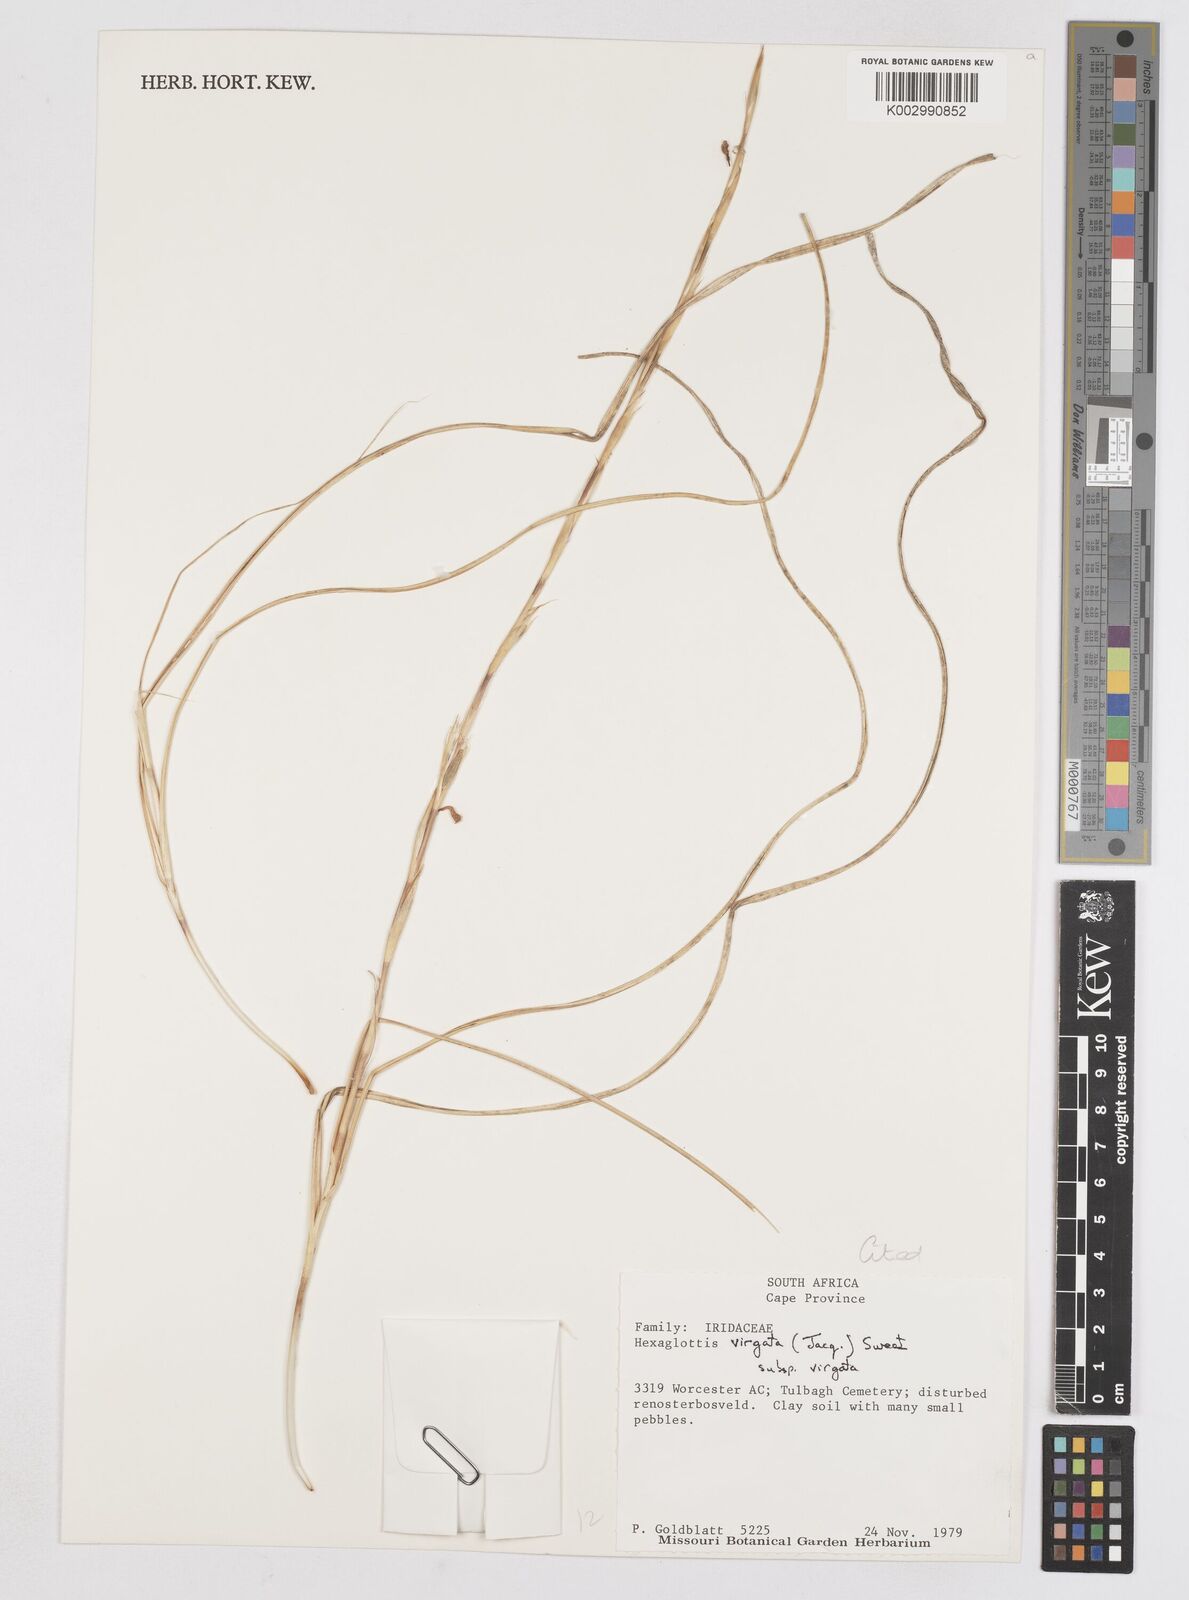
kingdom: Plantae
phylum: Tracheophyta
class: Liliopsida
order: Asparagales
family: Iridaceae
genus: Moraea
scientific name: Moraea virgata
